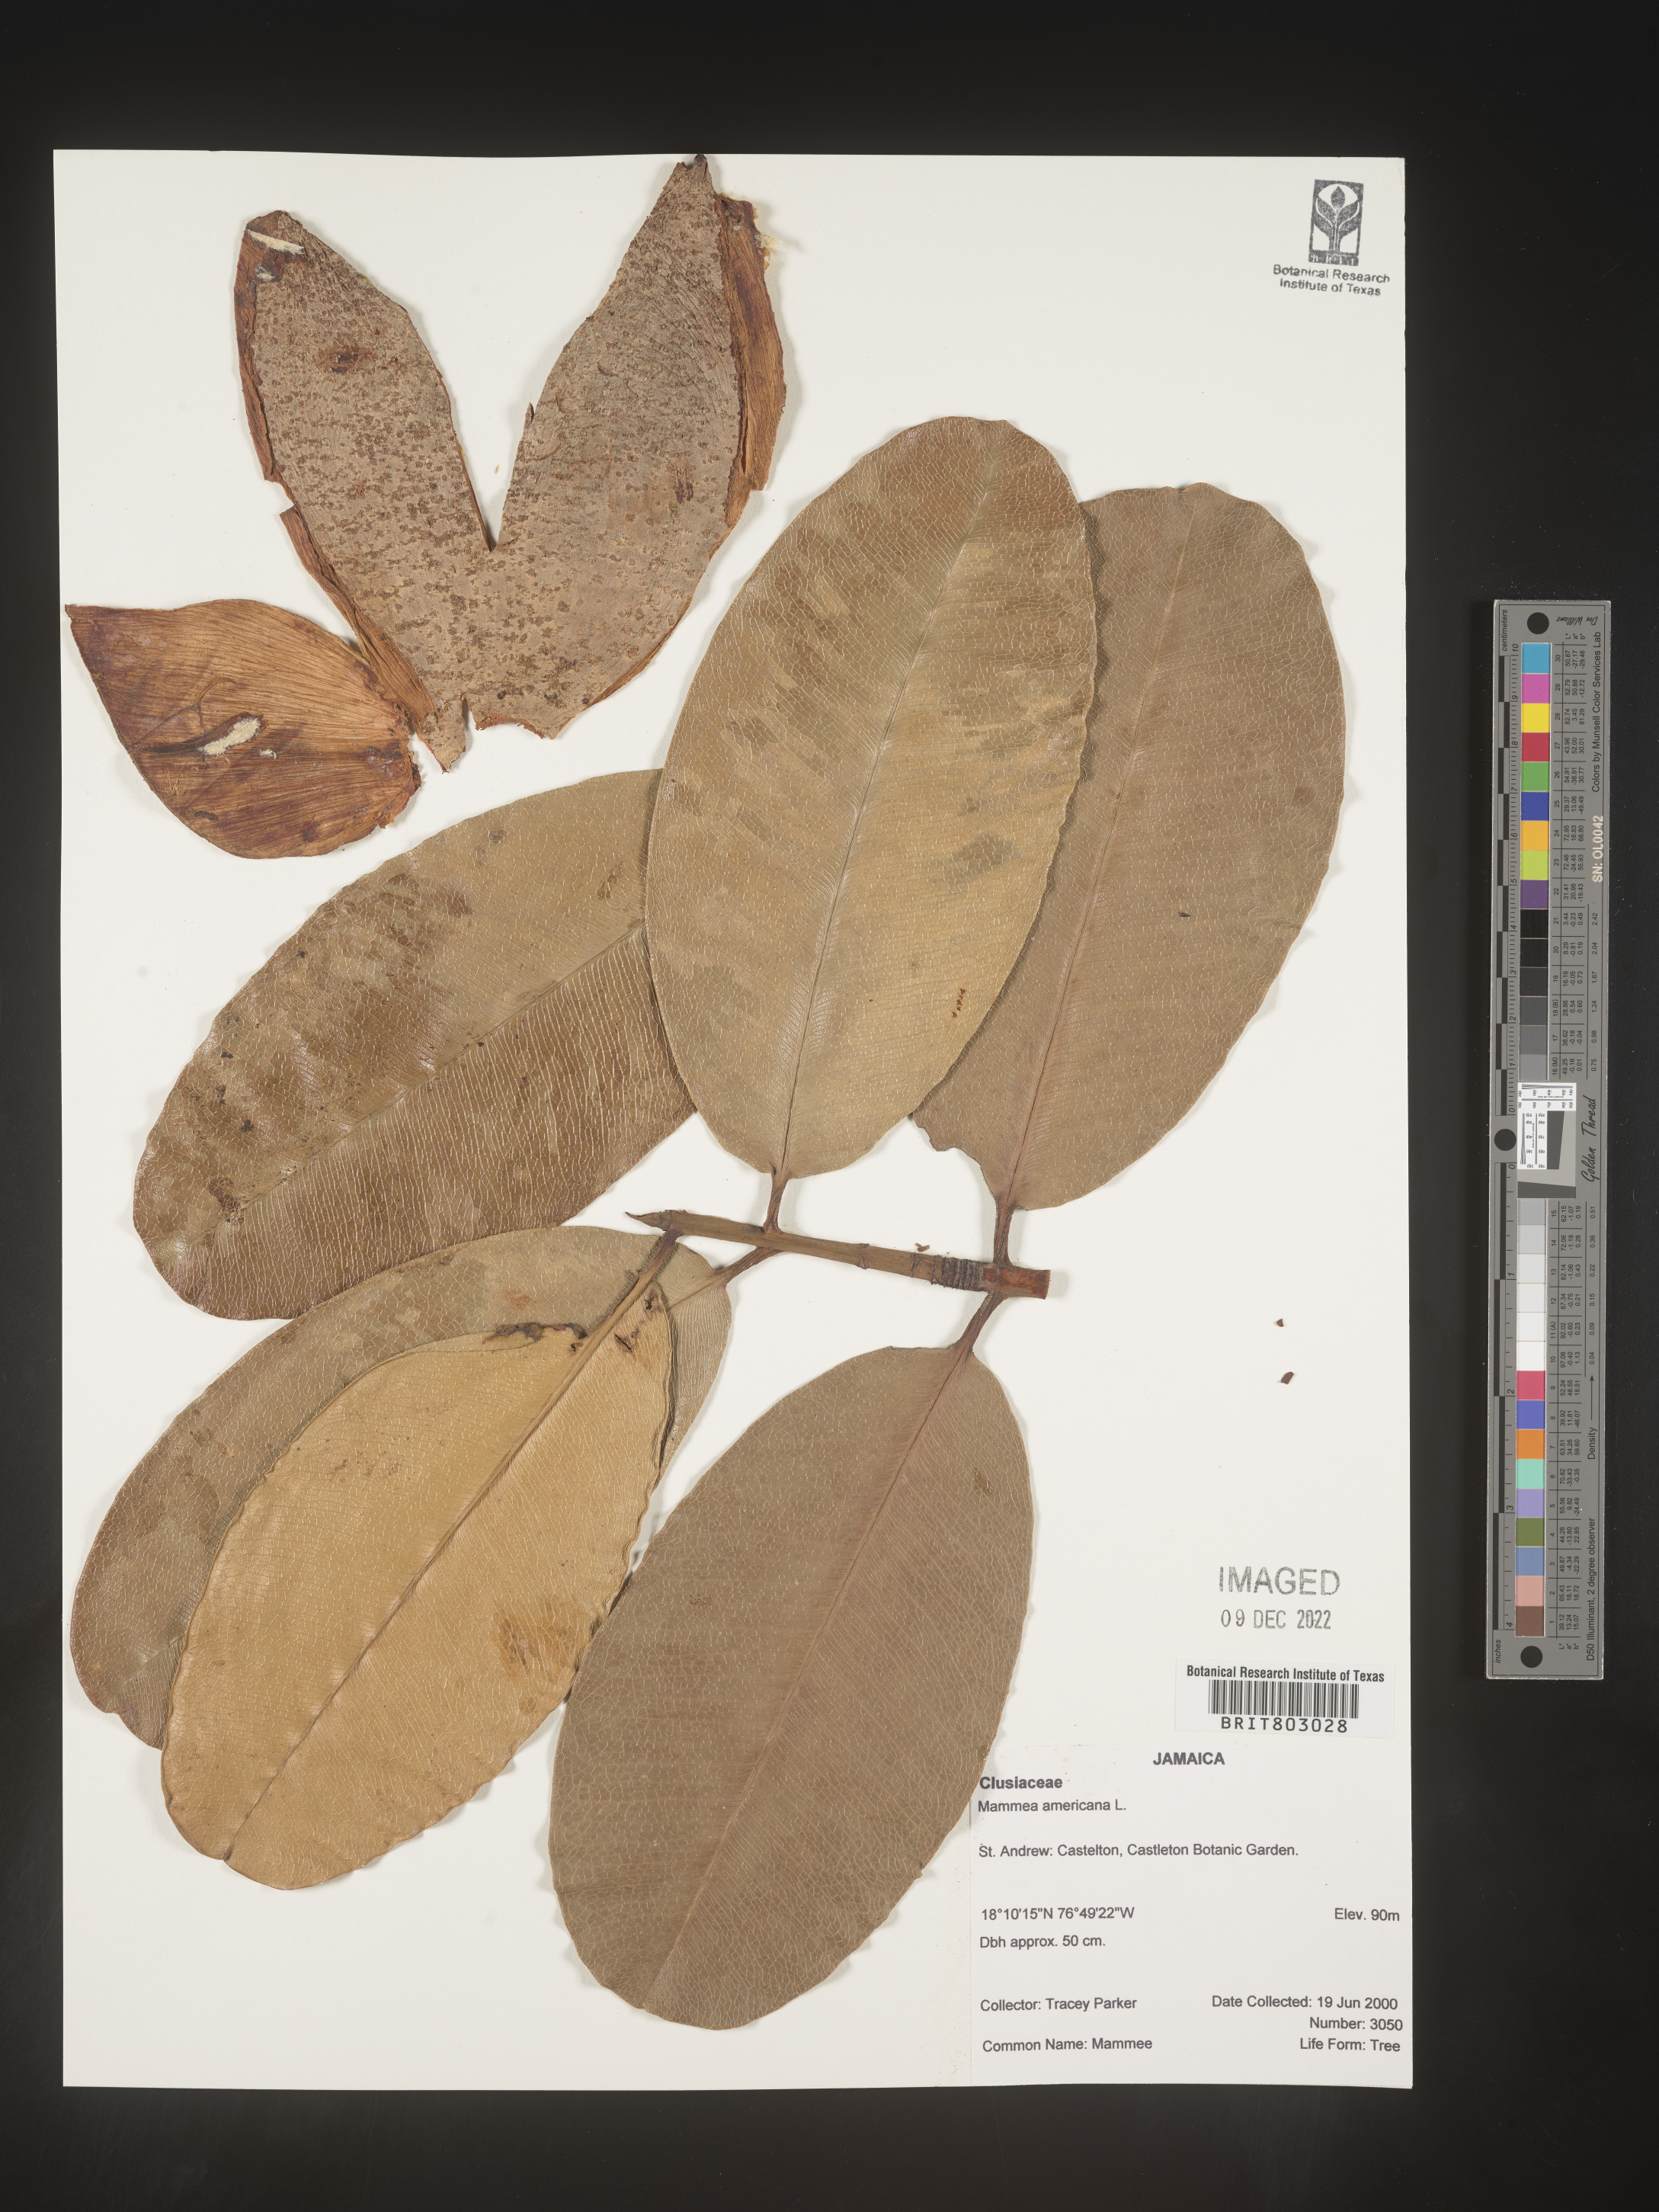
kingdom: Plantae
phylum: Tracheophyta
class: Magnoliopsida
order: Malpighiales
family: Calophyllaceae
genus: Mammea
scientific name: Mammea
